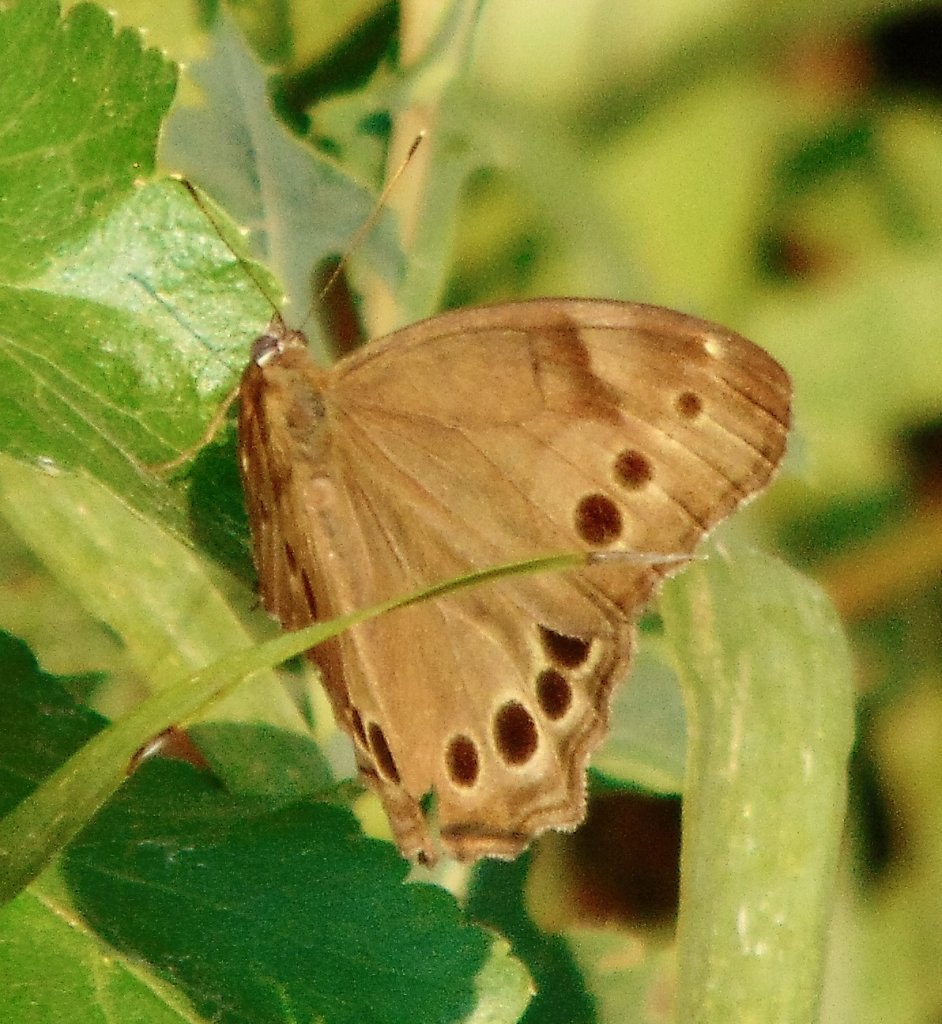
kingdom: Animalia
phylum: Arthropoda
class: Insecta
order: Lepidoptera
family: Nymphalidae
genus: Lethe
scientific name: Lethe anthedon
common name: Northern Pearly-Eye
